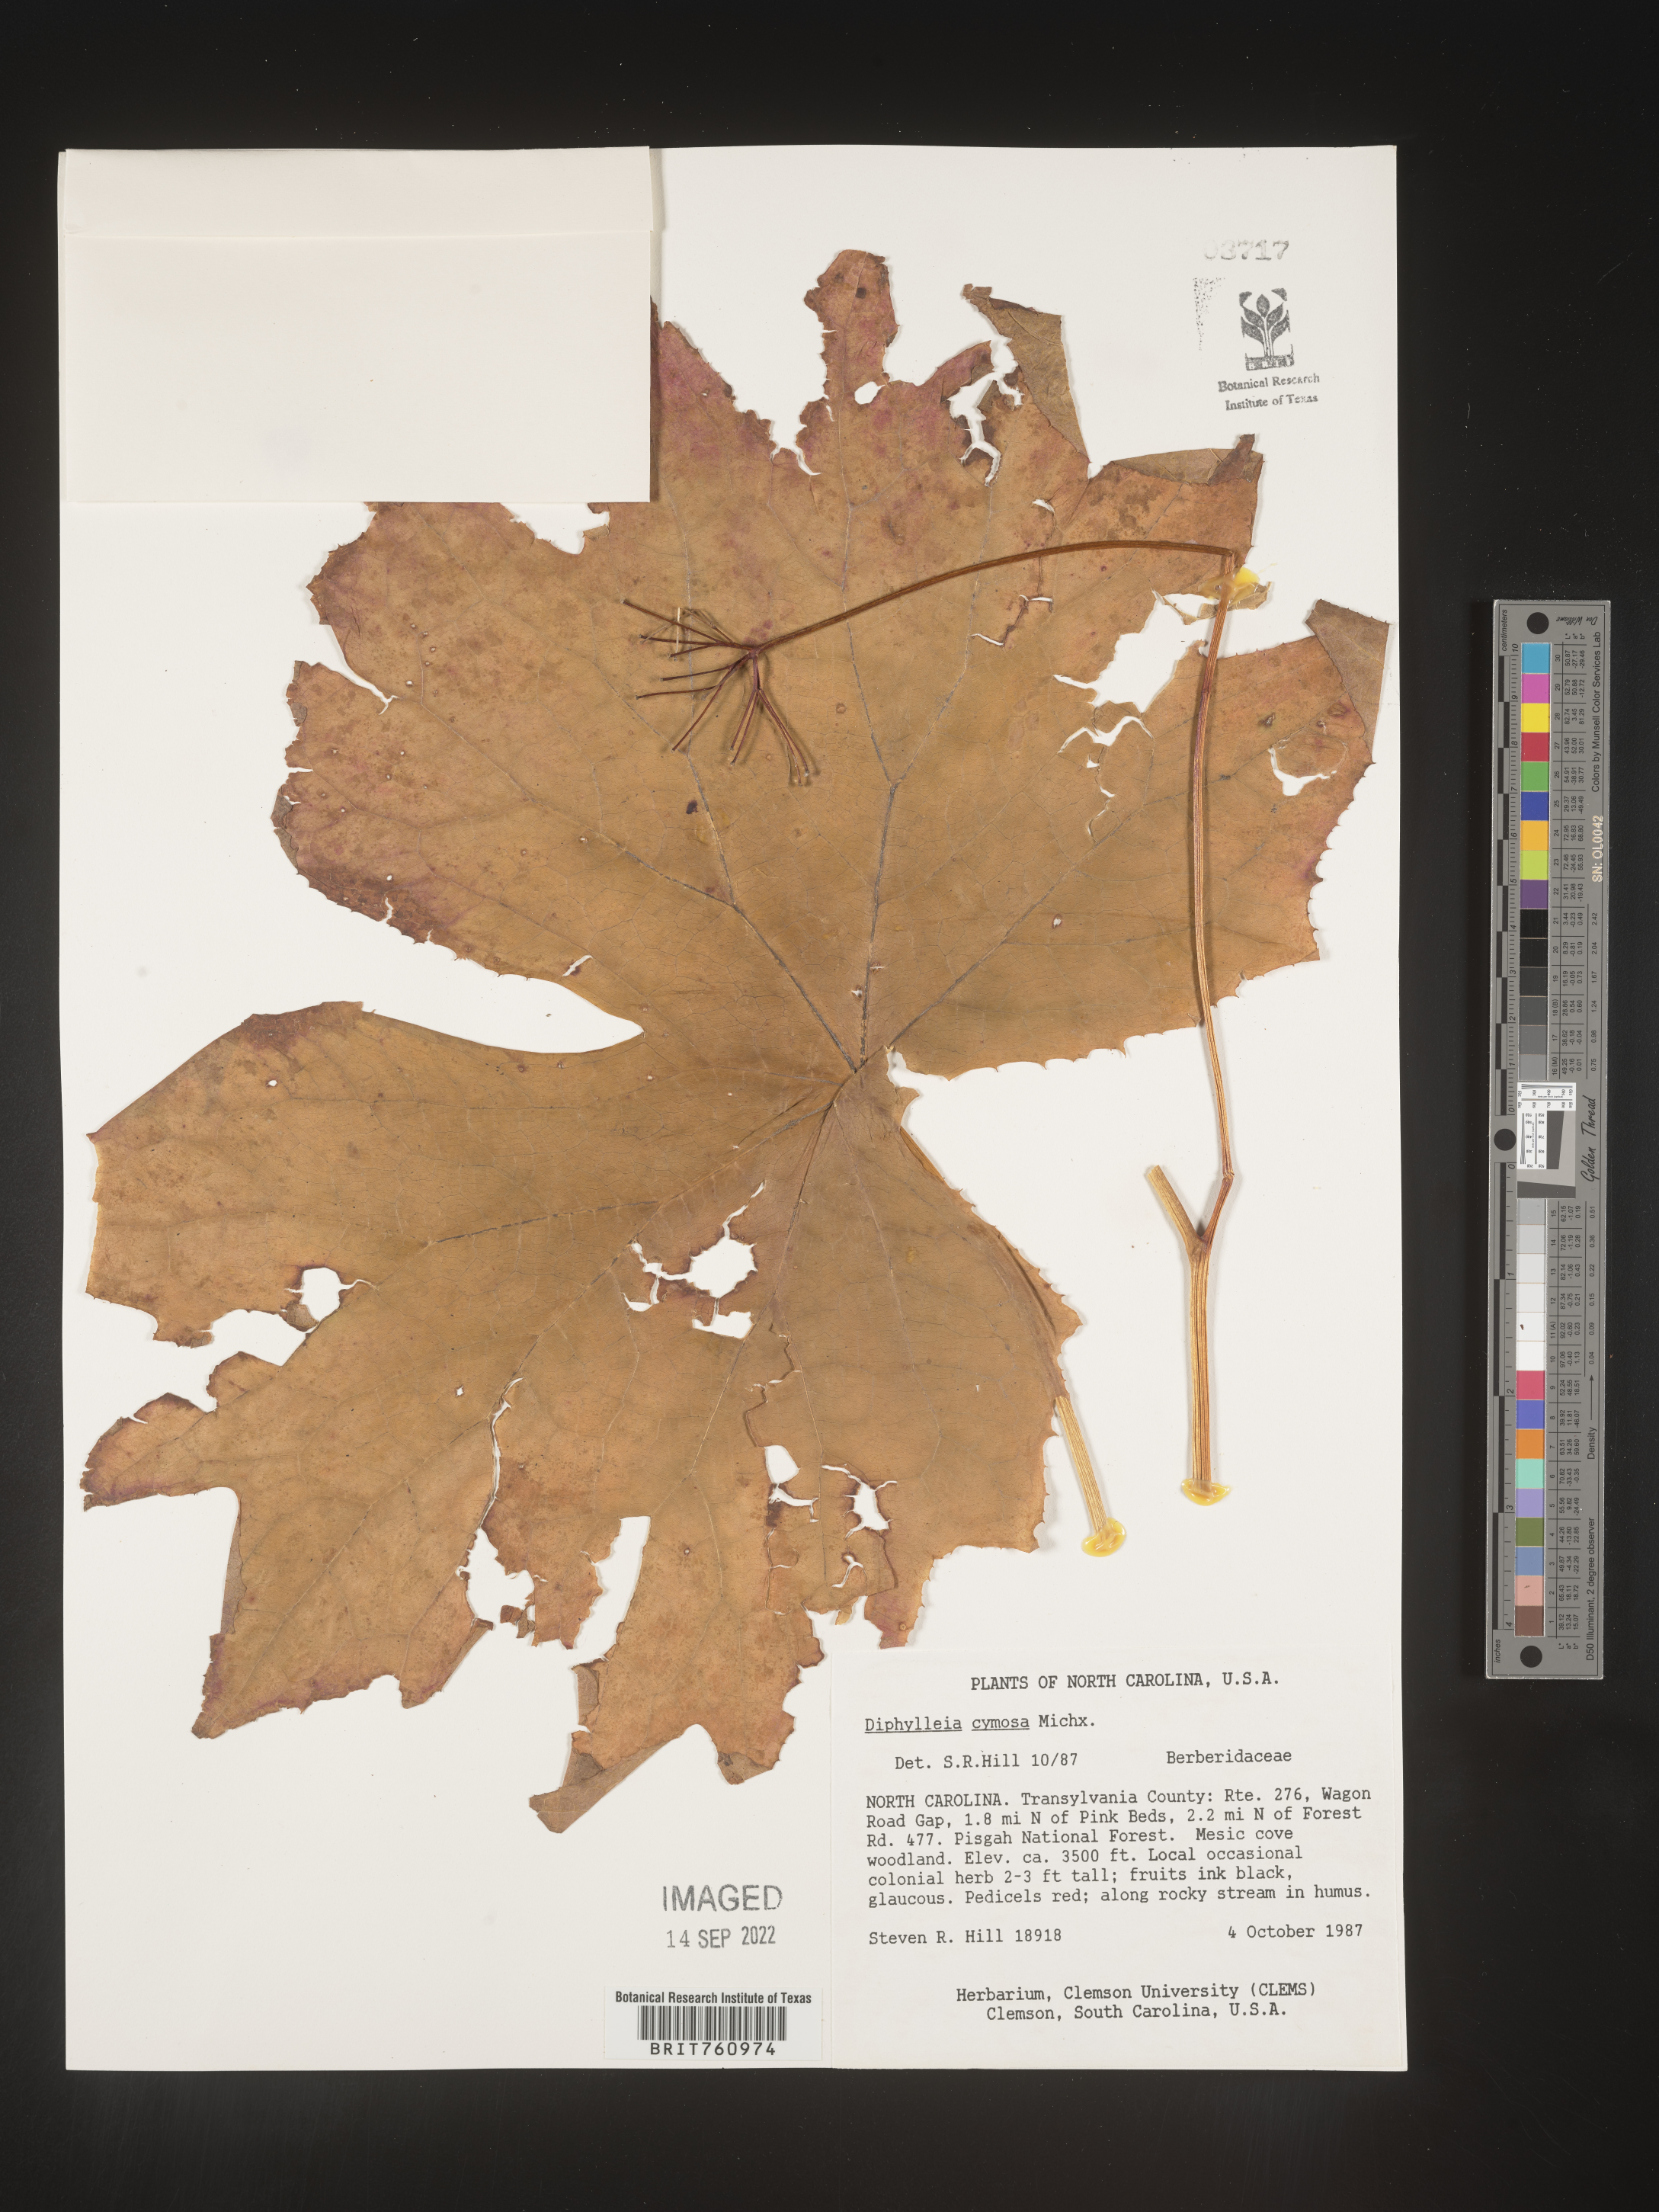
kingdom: Plantae
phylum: Tracheophyta
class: Magnoliopsida
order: Ranunculales
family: Berberidaceae
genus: Diphylleia
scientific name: Diphylleia
